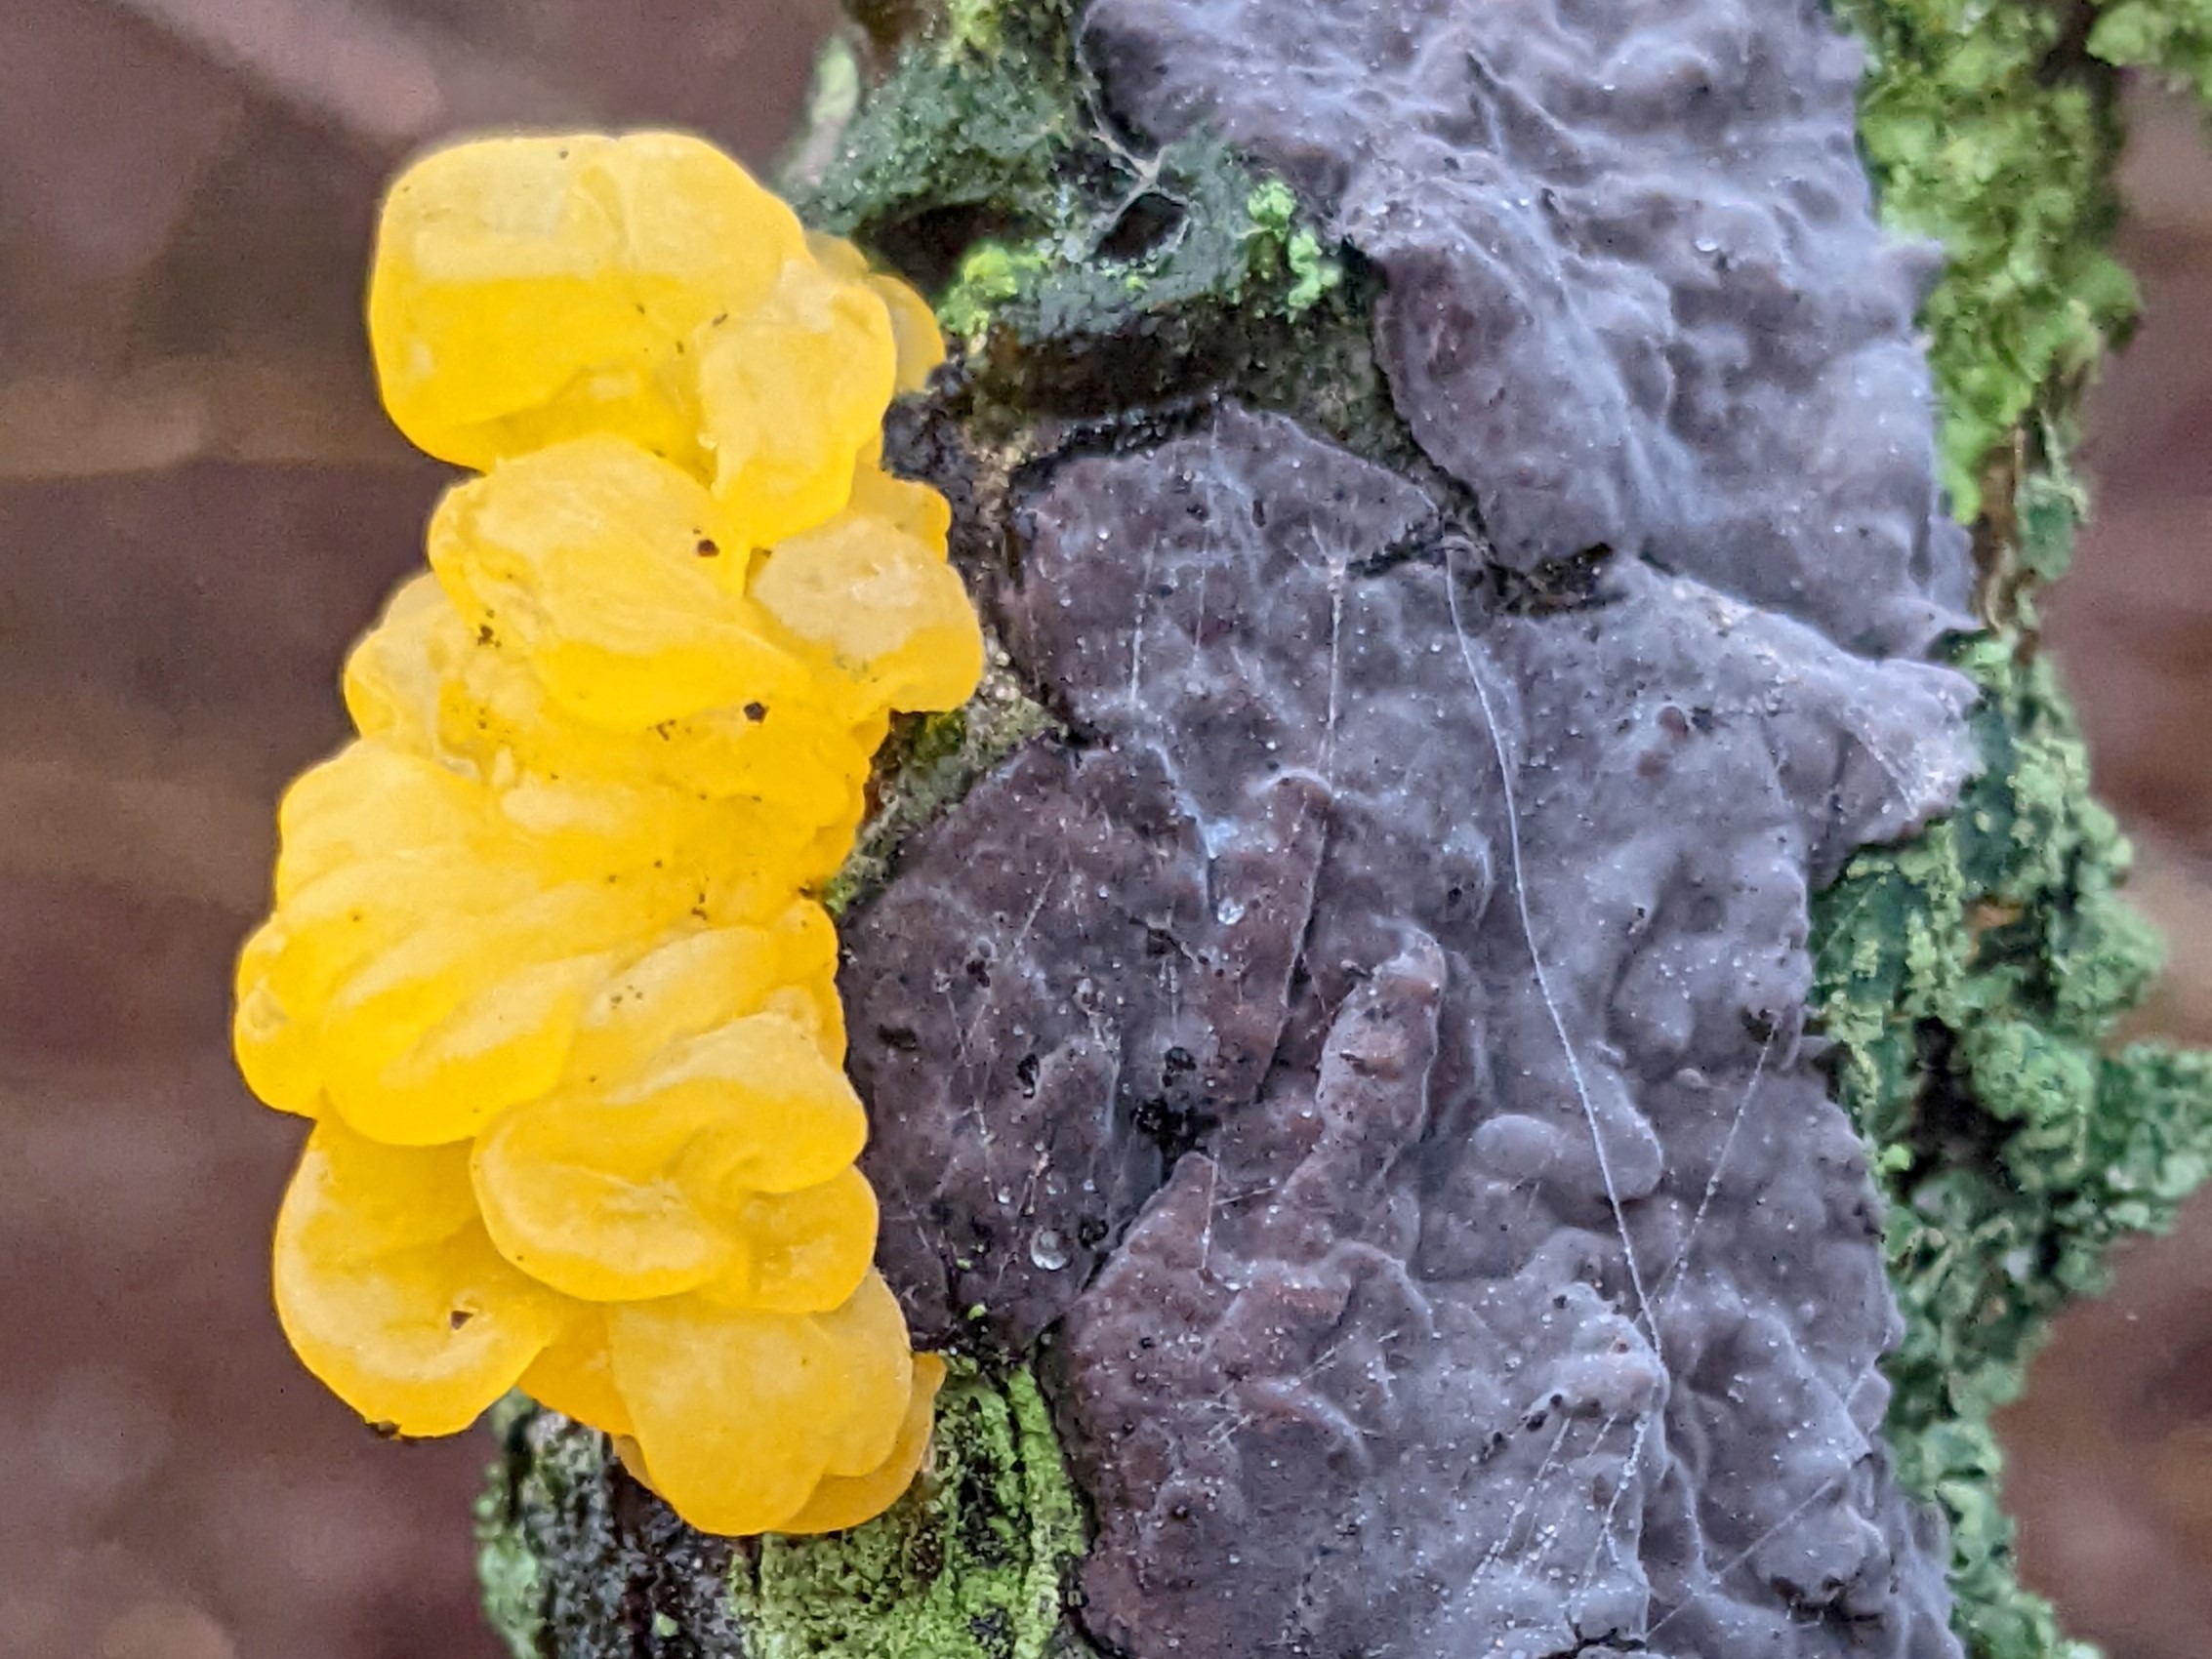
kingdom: Fungi
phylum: Basidiomycota
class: Tremellomycetes
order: Tremellales
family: Tremellaceae
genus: Tremella
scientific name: Tremella mesenterica
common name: Gul bævresvamp
